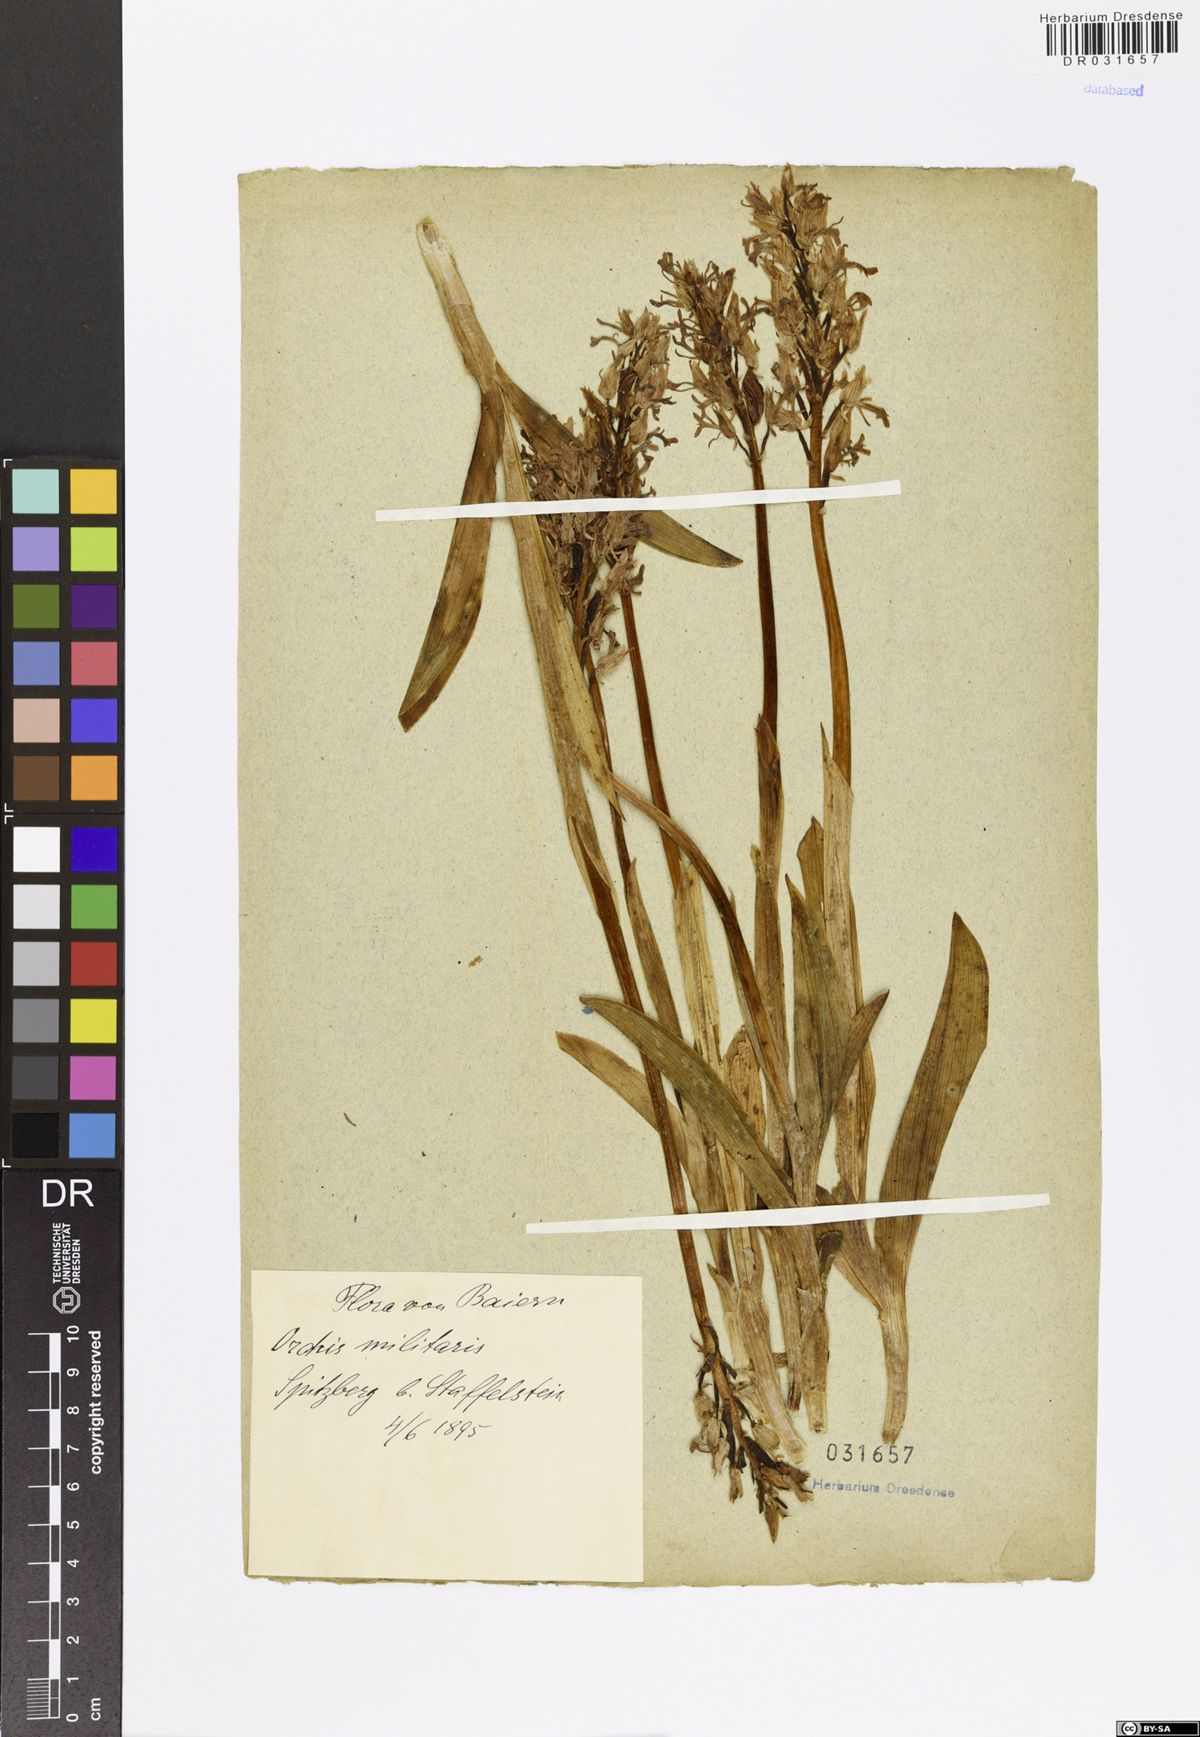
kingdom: Plantae
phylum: Tracheophyta
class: Liliopsida
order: Asparagales
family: Orchidaceae
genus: Orchis
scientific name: Orchis militaris
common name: Military orchid
